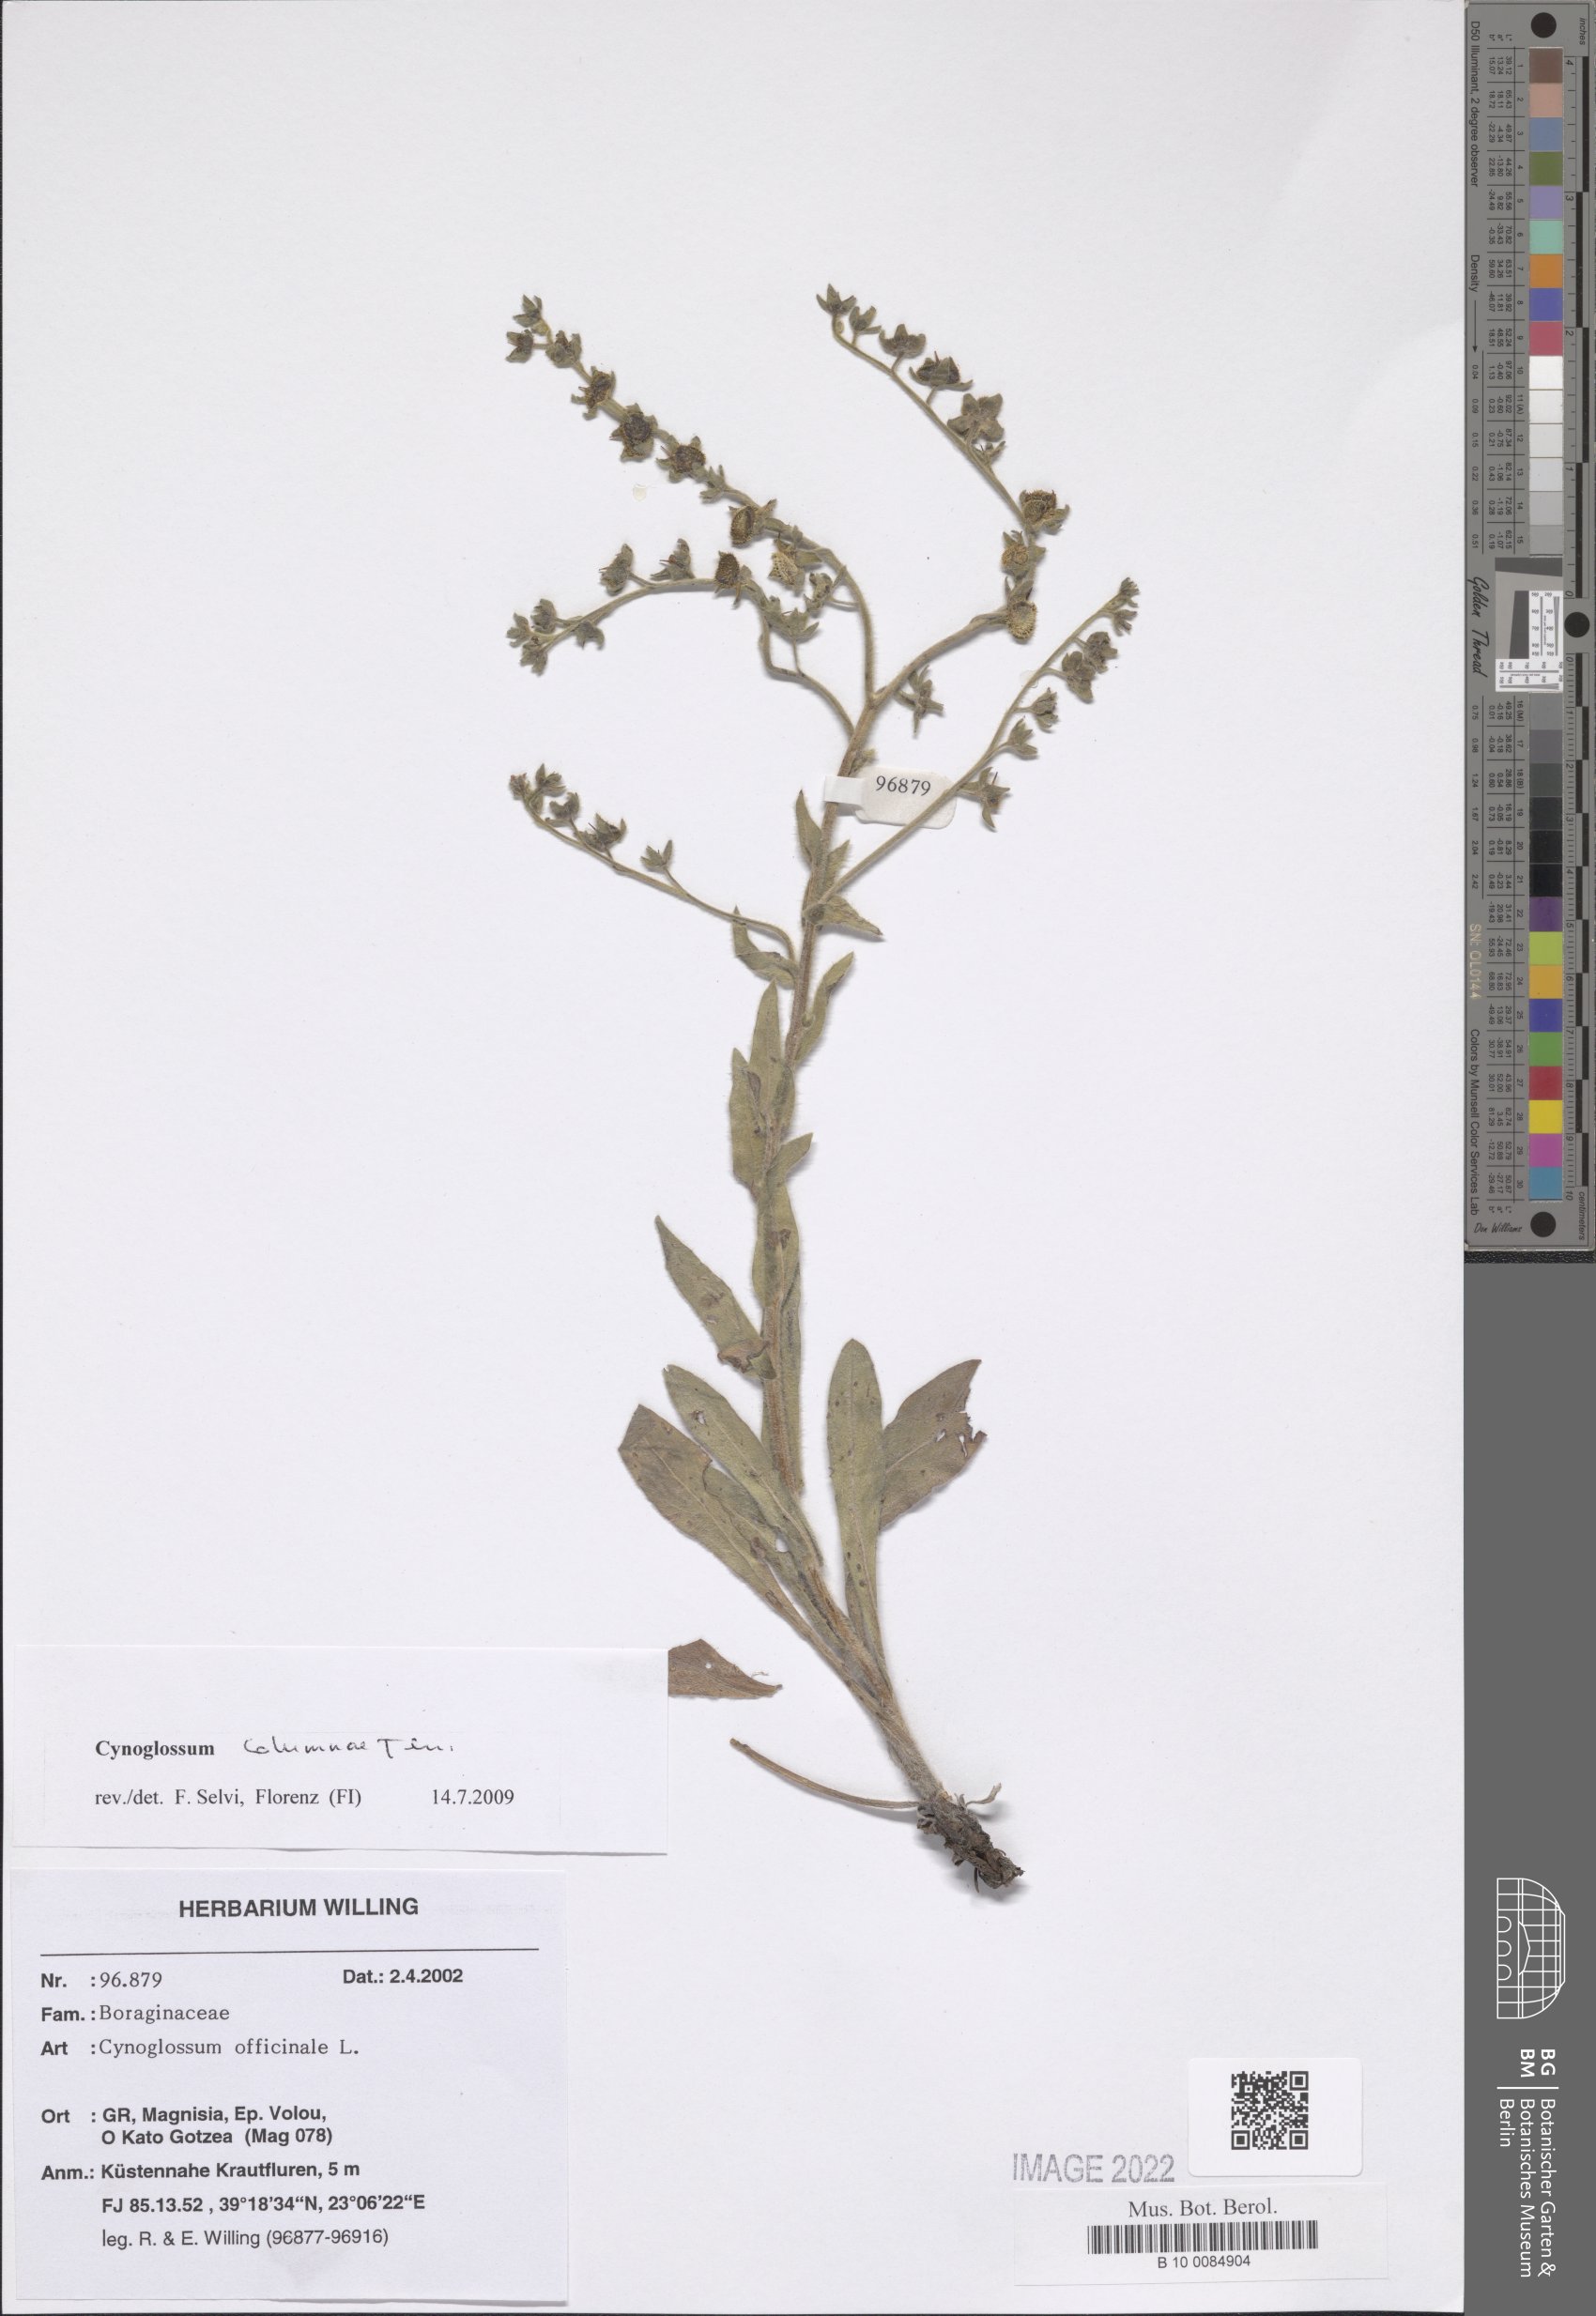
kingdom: Plantae
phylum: Tracheophyta
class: Magnoliopsida
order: Boraginales
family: Boraginaceae
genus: Rindera
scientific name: Rindera columnae
